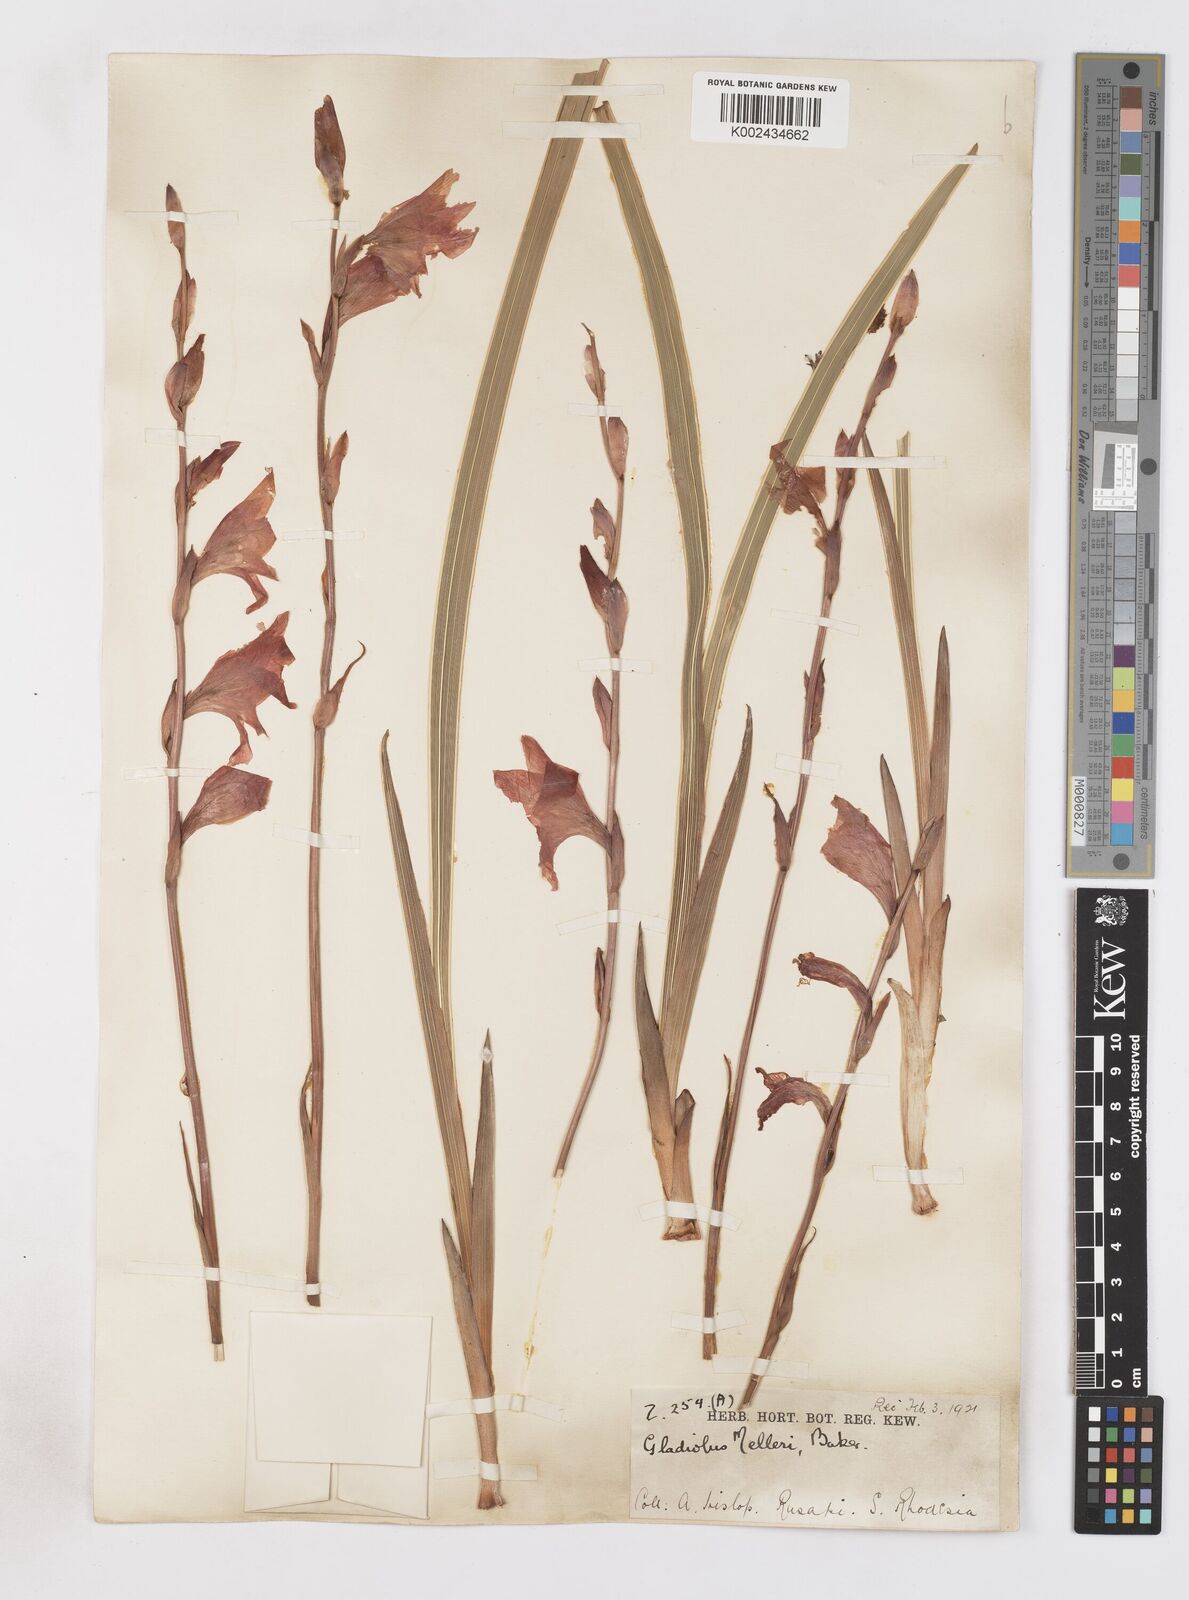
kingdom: Plantae
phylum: Tracheophyta
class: Liliopsida
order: Asparagales
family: Iridaceae
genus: Gladiolus
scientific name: Gladiolus melleri
